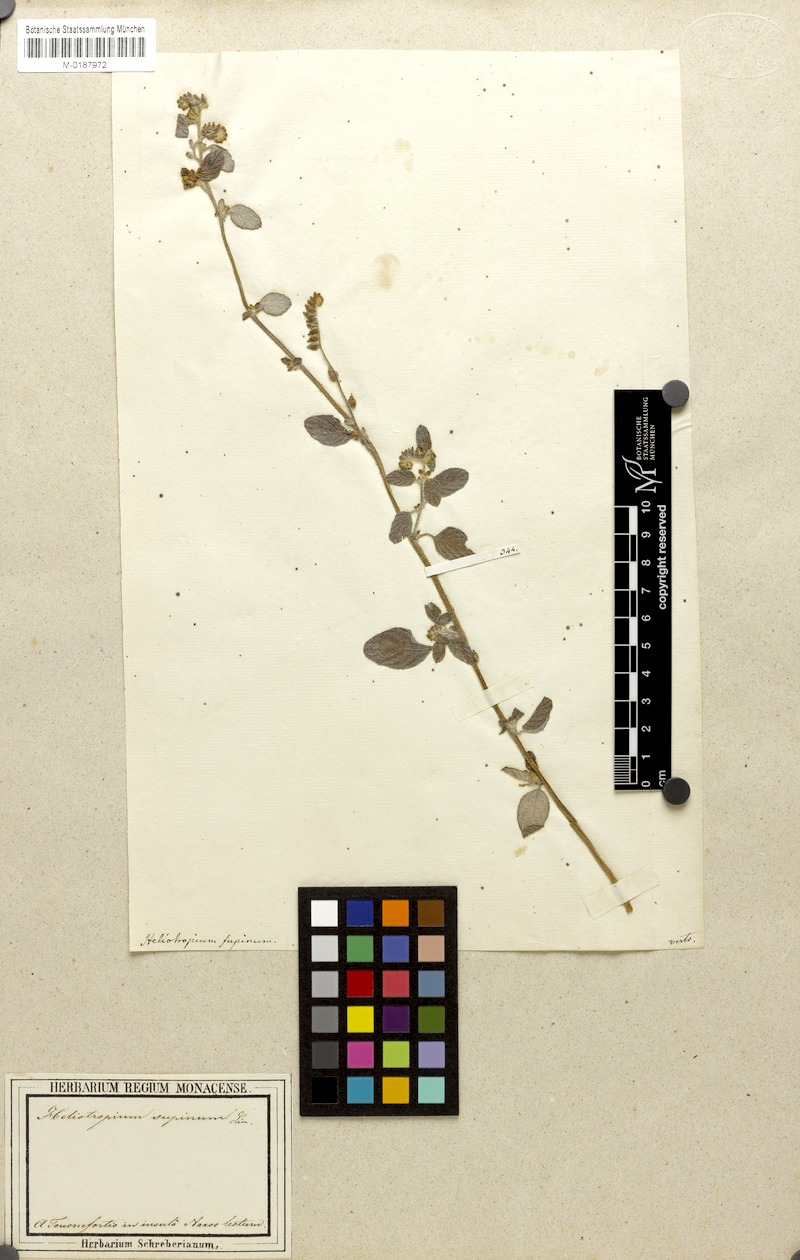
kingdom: Plantae
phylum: Tracheophyta
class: Magnoliopsida
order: Boraginales
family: Heliotropiaceae
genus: Heliotropium
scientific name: Heliotropium supinum
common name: Dwarf heliotrope
